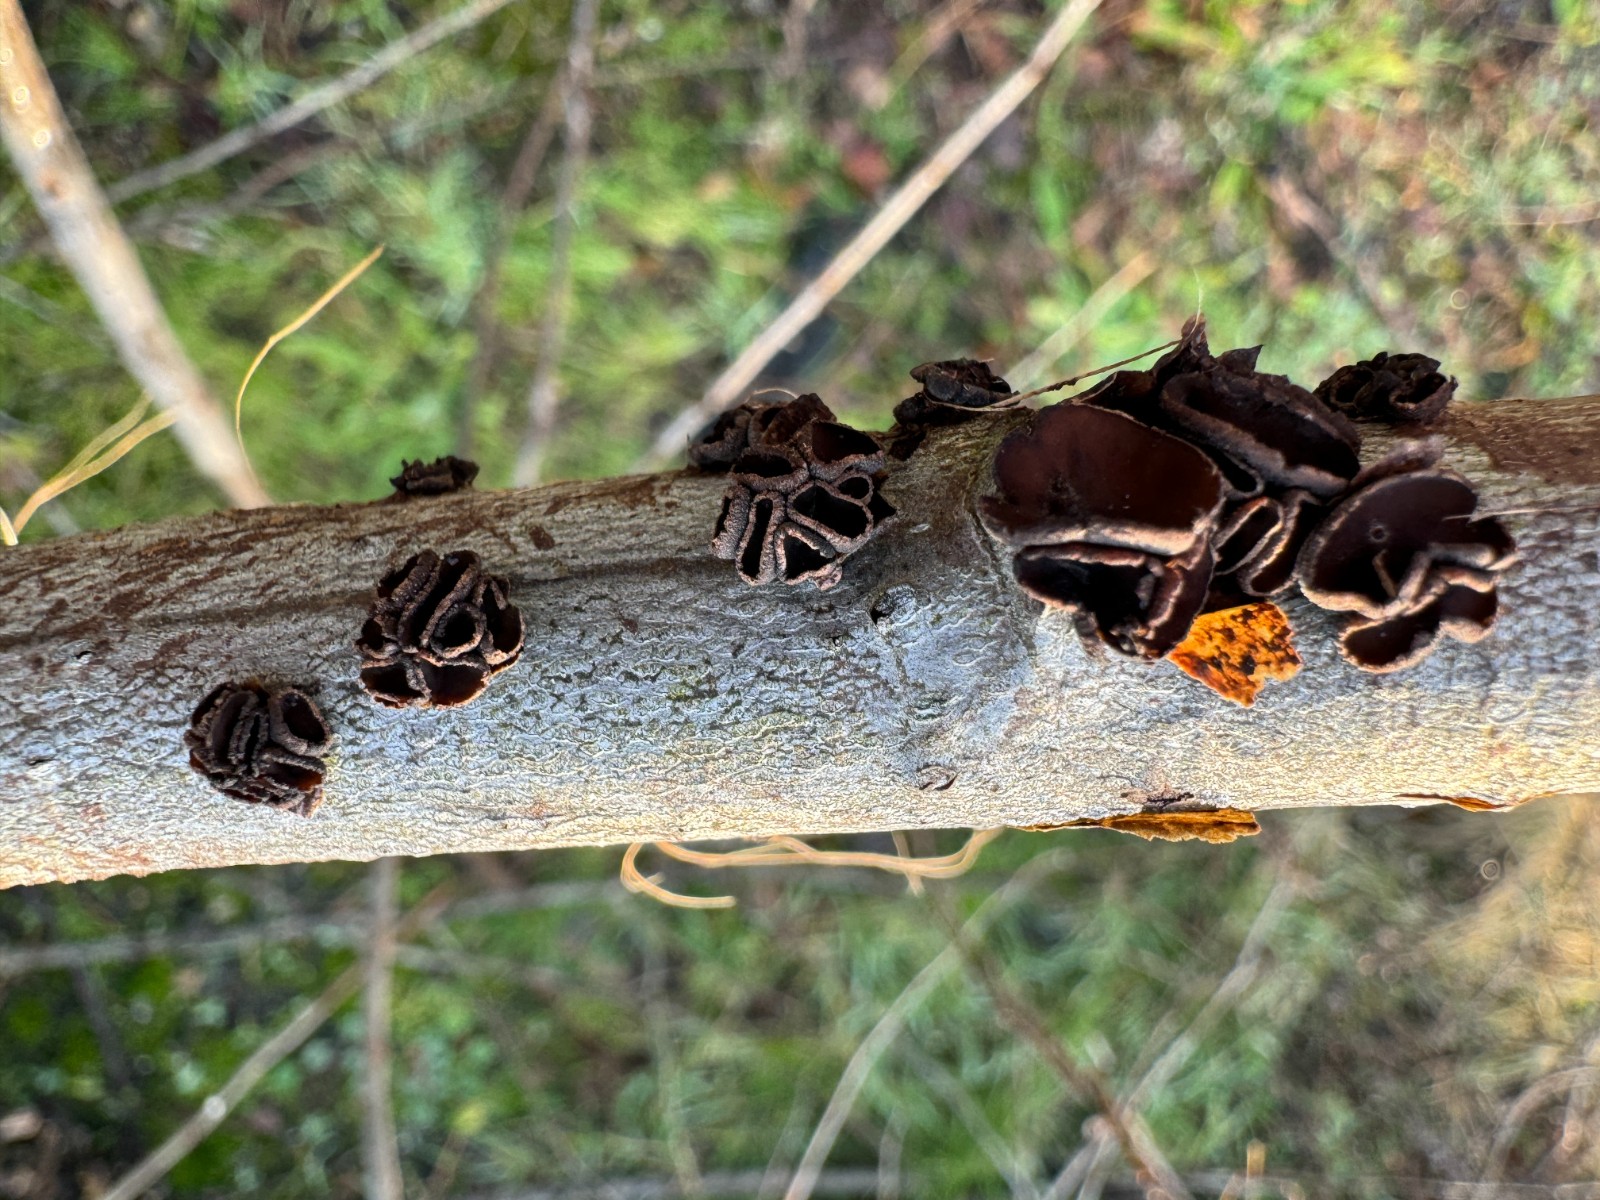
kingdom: Fungi
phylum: Ascomycota
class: Leotiomycetes
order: Helotiales
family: Sclerotiniaceae
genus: Sclerencoelia
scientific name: Sclerencoelia fascicularis
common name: poppel-læderskive
